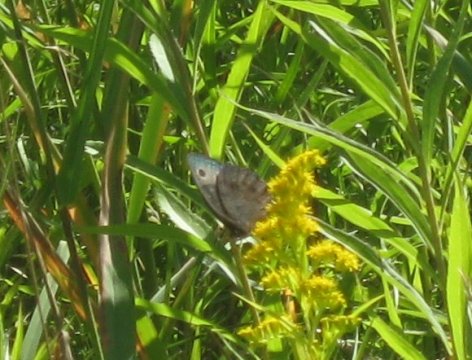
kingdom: Animalia
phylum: Arthropoda
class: Insecta
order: Lepidoptera
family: Nymphalidae
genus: Cercyonis
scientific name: Cercyonis pegala
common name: Common Wood-Nymph
